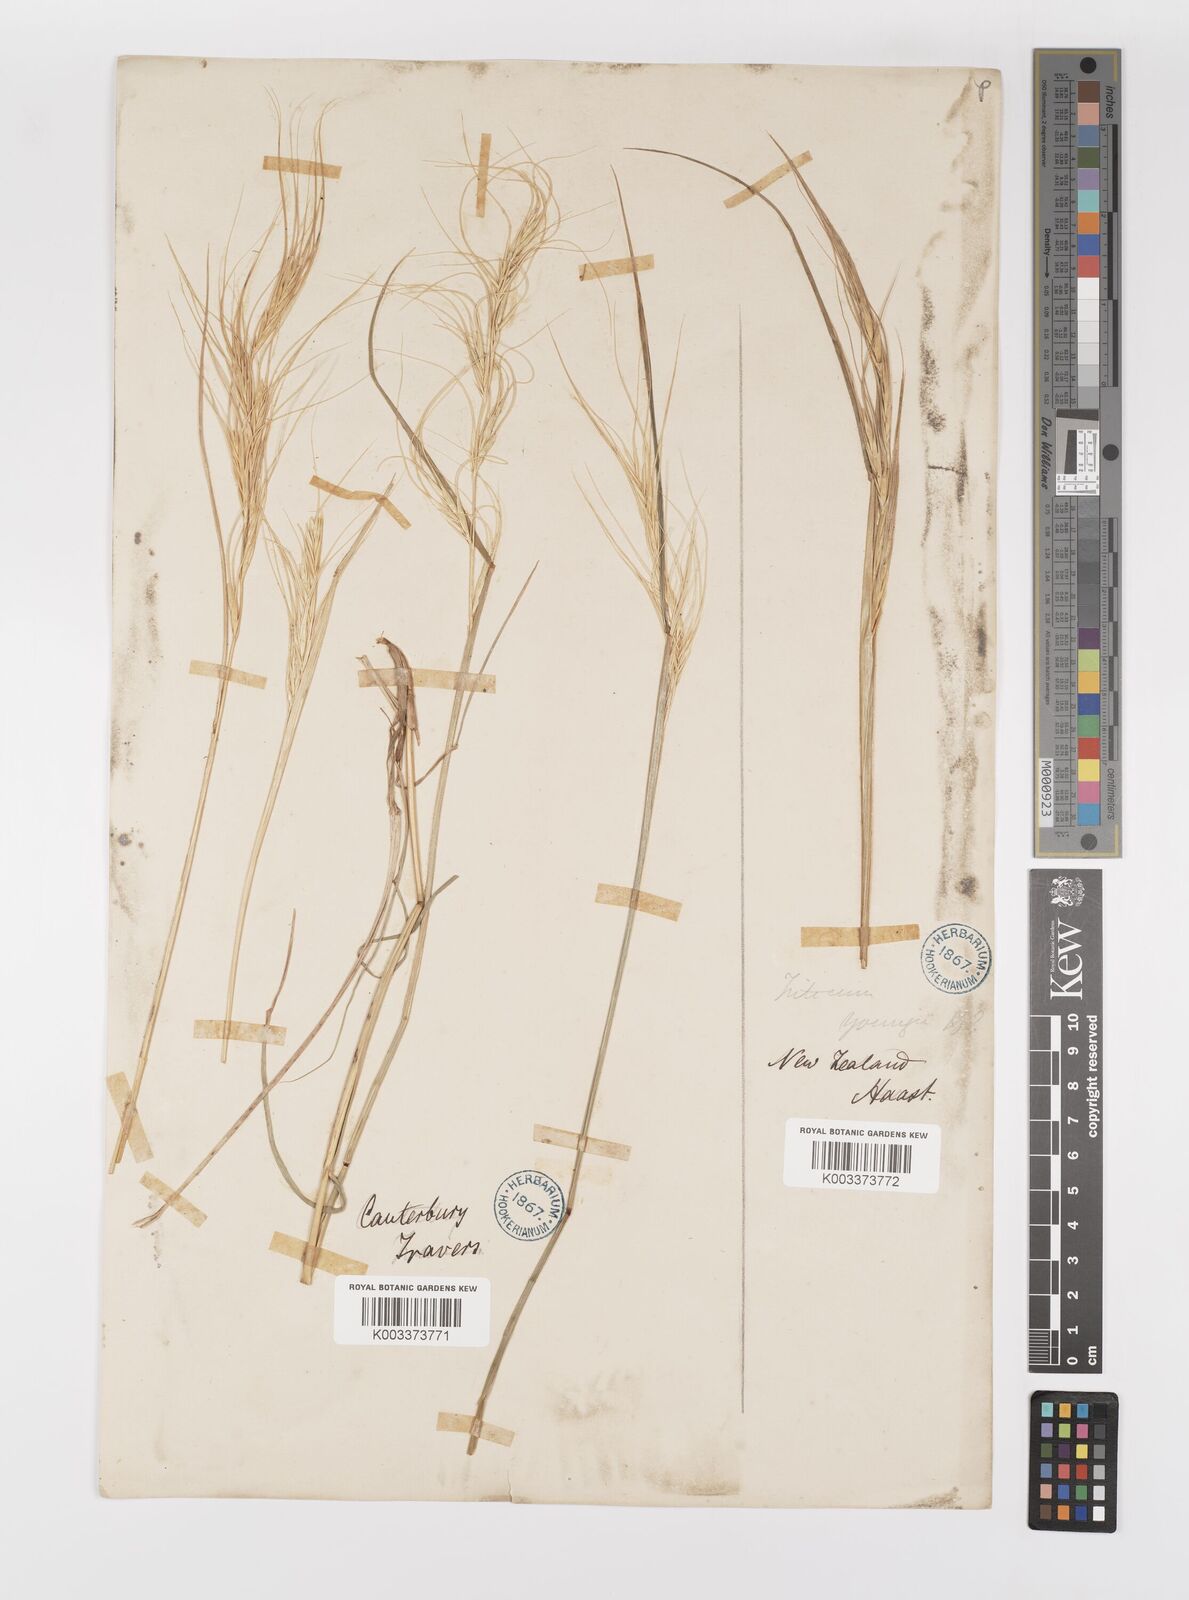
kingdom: Plantae
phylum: Tracheophyta
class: Liliopsida
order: Poales
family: Poaceae
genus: Anthosachne
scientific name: Anthosachne scabra
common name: Common wheatgrass
